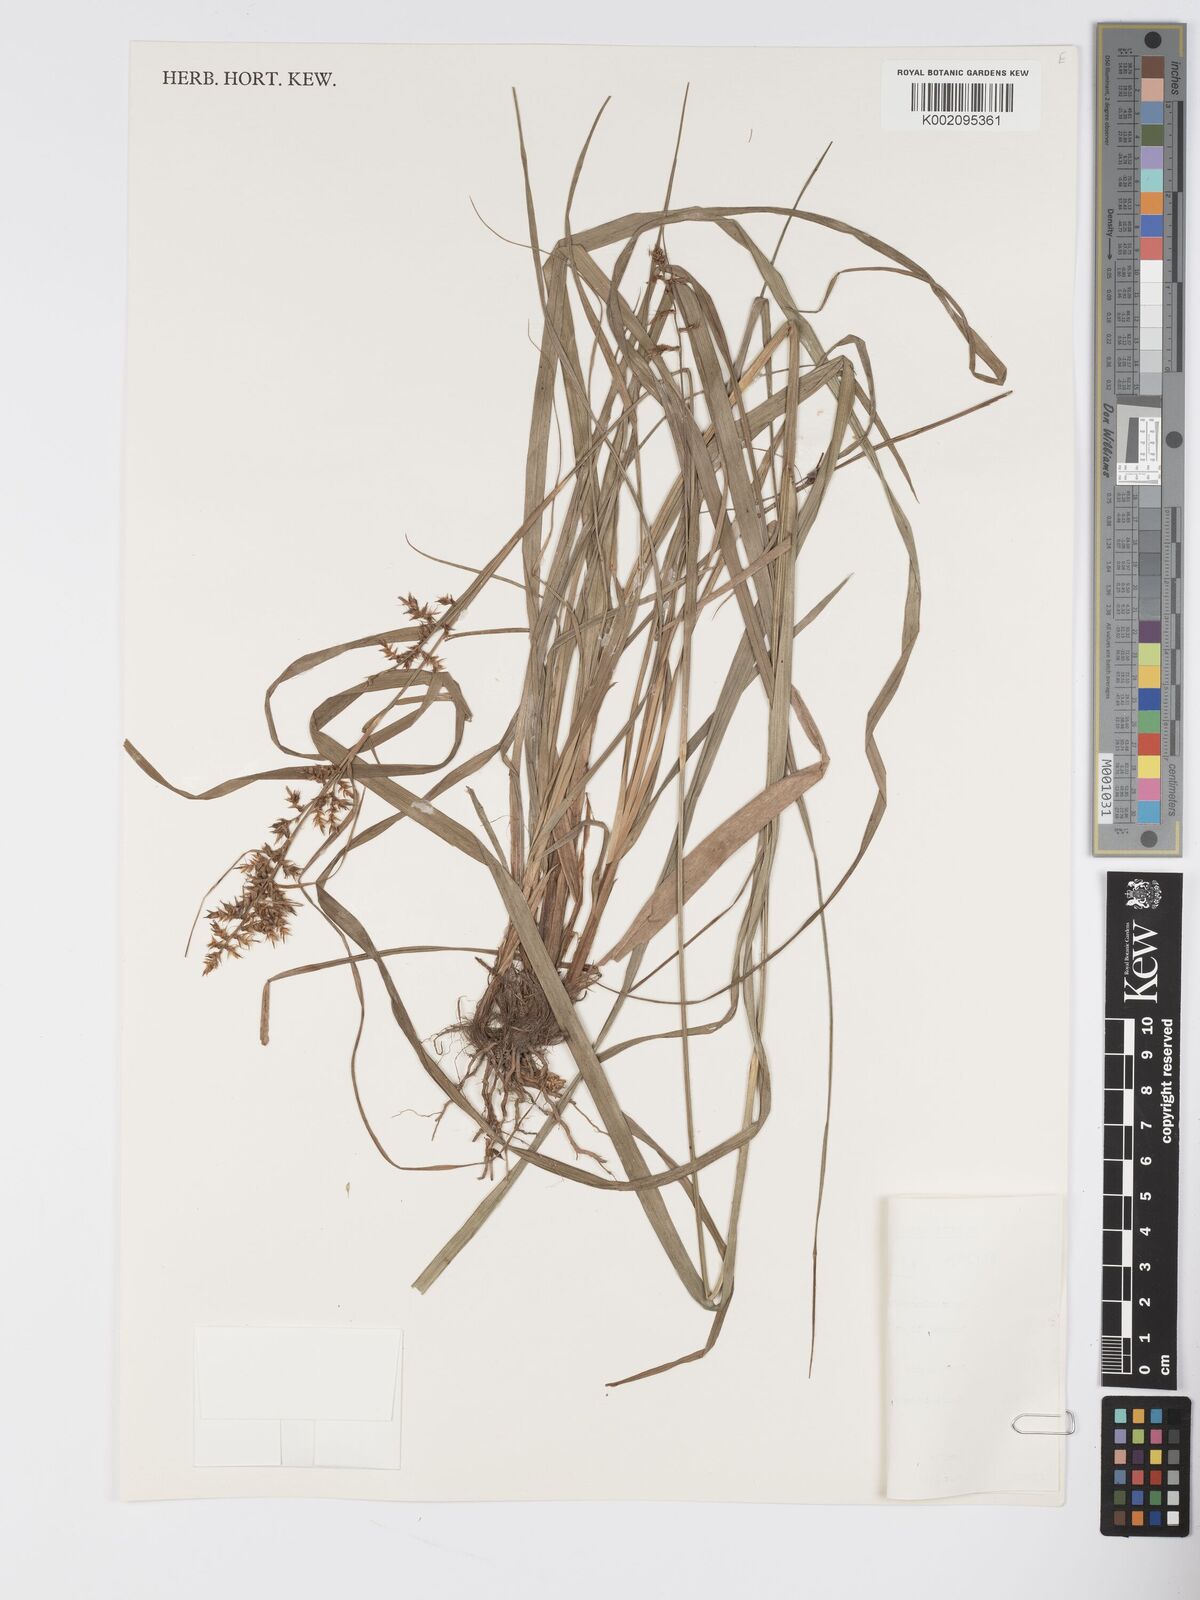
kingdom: Plantae
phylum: Tracheophyta
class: Liliopsida
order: Poales
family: Cyperaceae
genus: Carex
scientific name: Carex chlorosaccus
